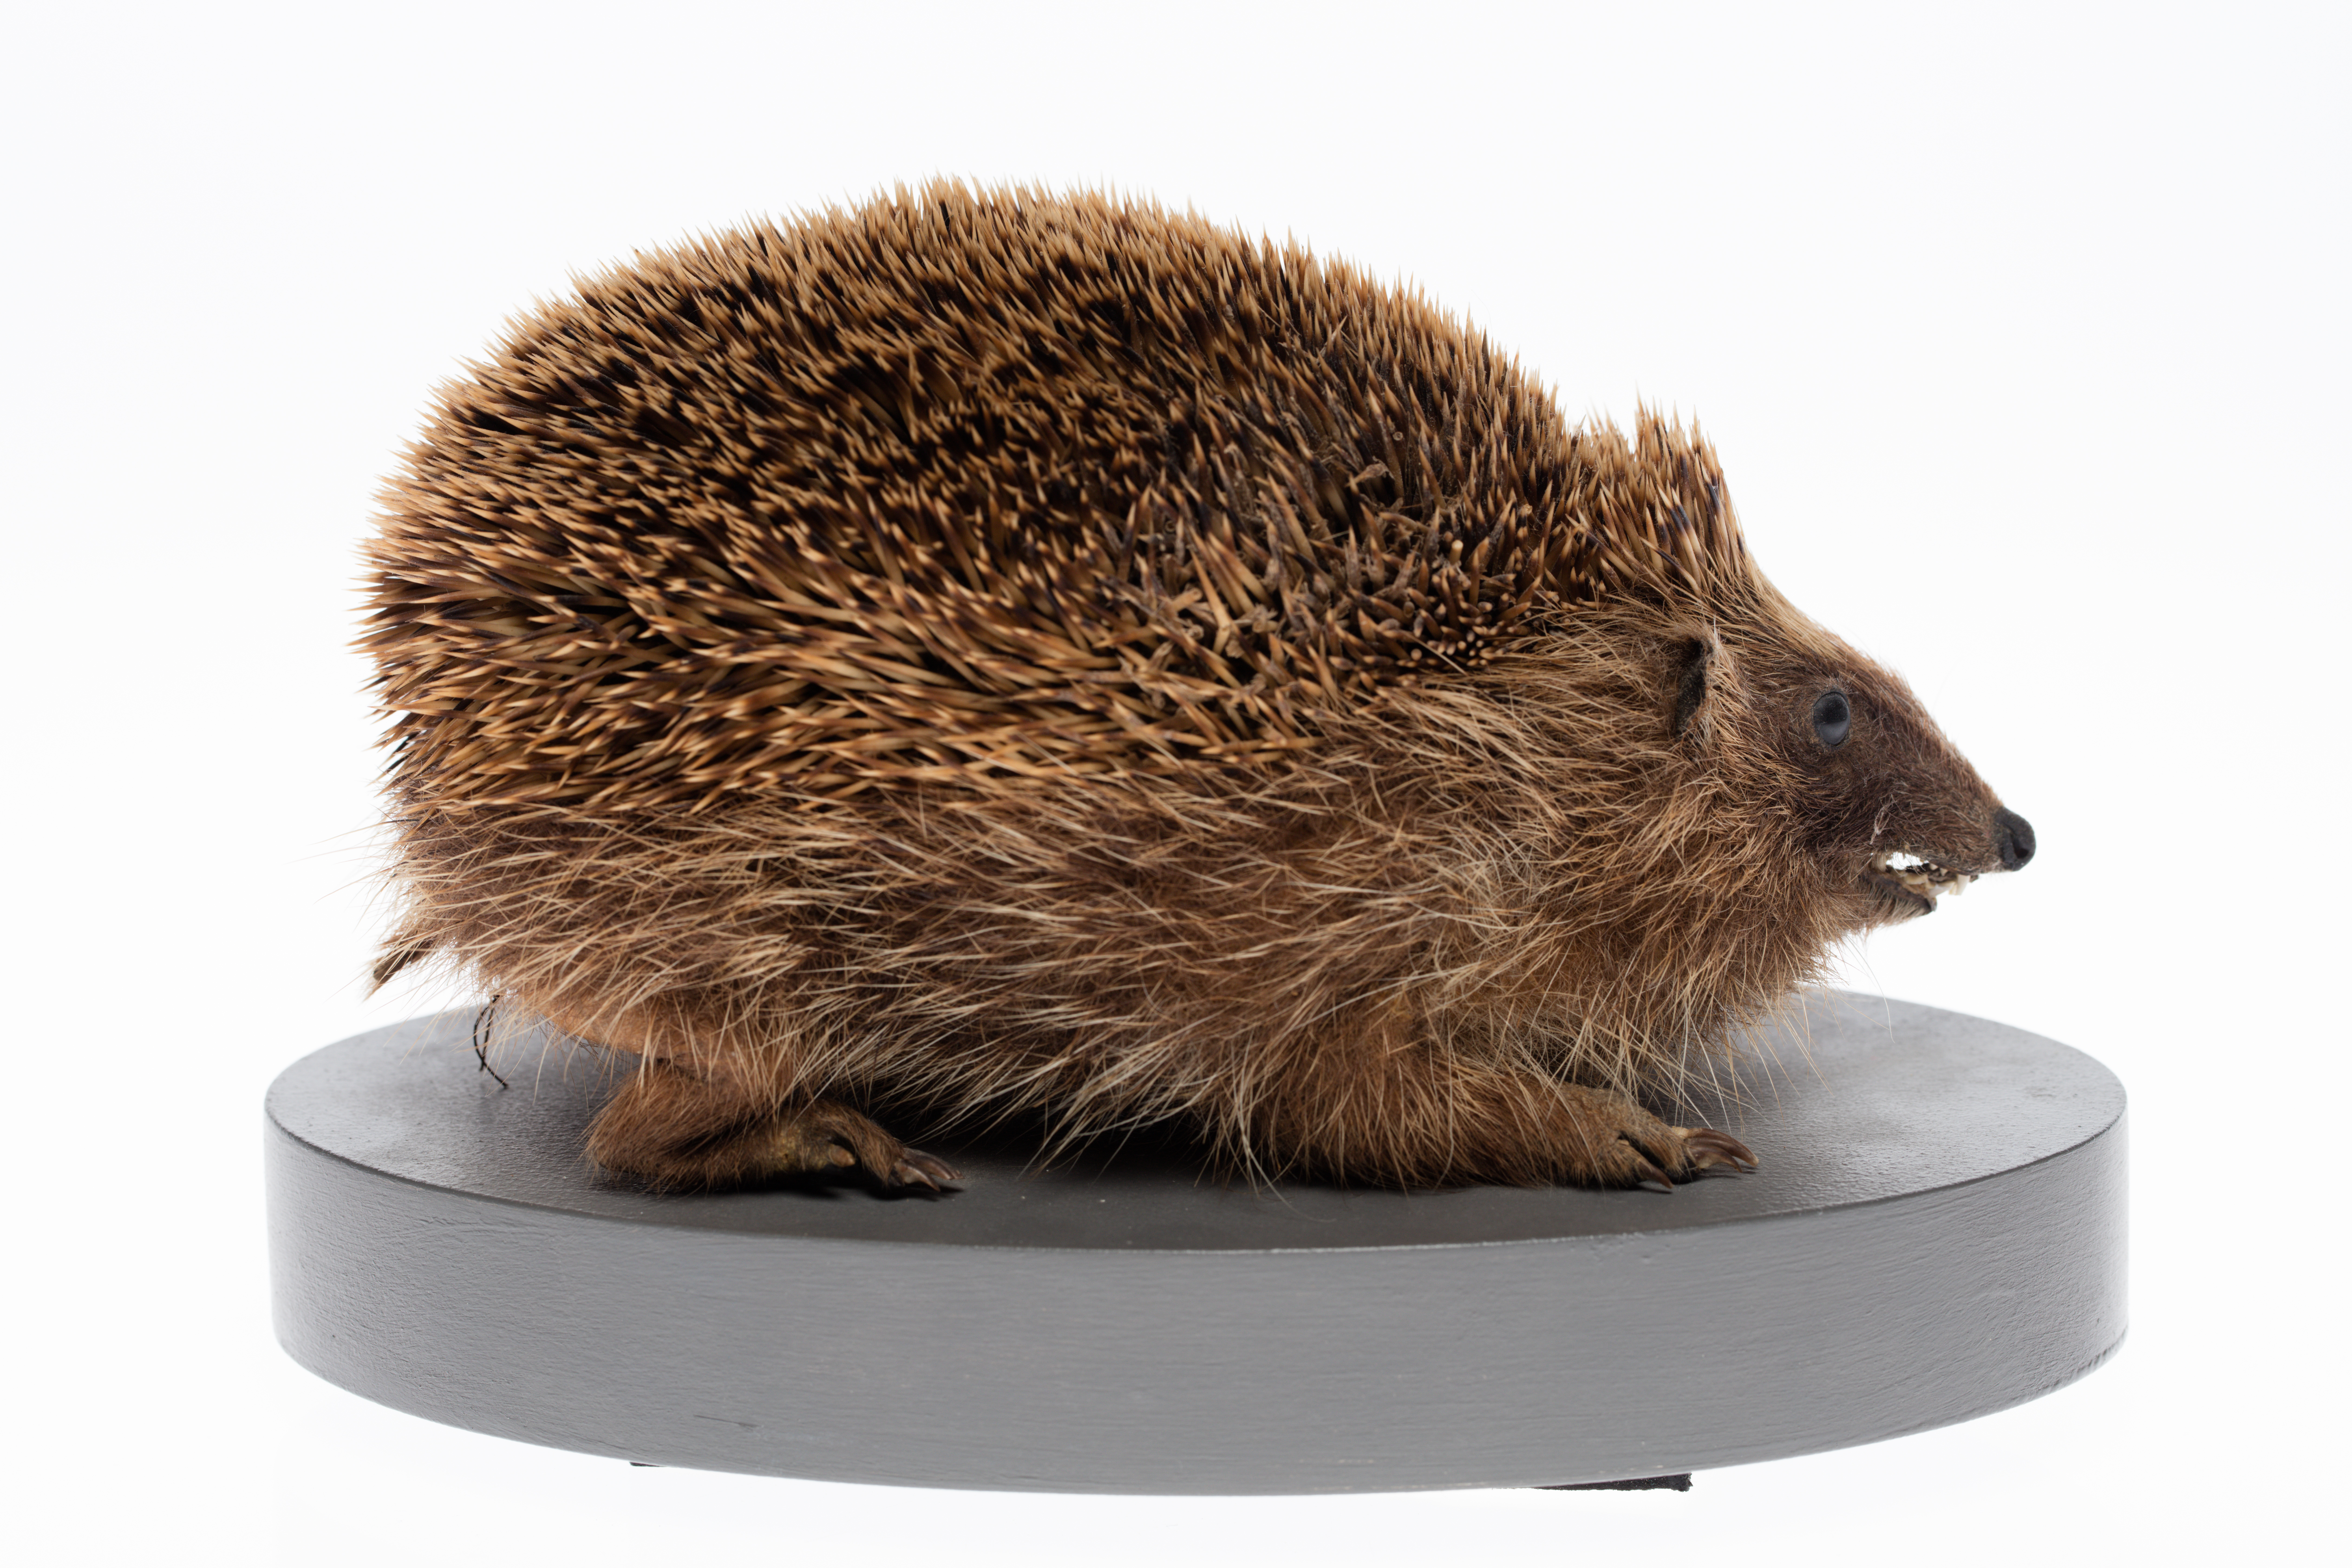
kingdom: Animalia
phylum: Chordata
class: Mammalia
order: Erinaceomorpha
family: Erinaceidae
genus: Erinaceus
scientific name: Erinaceus europaeus
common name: West european hedgehog
